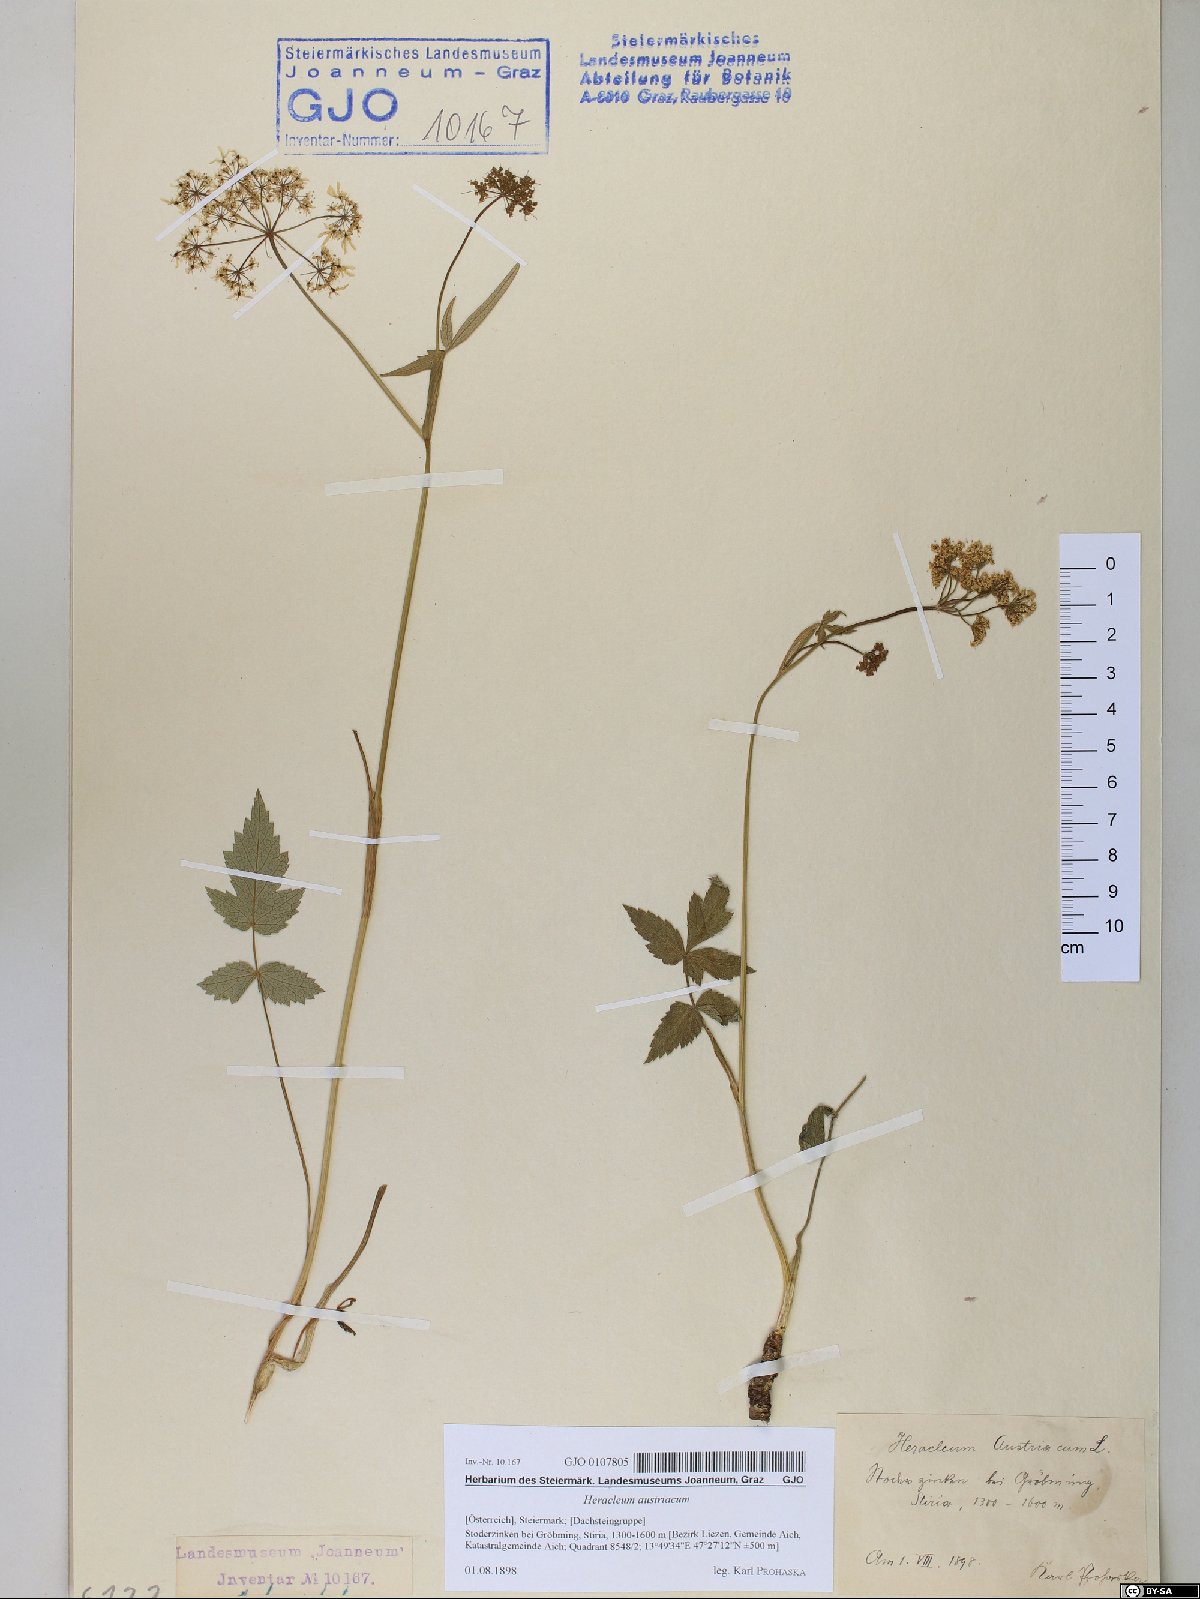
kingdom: Plantae
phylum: Tracheophyta
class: Magnoliopsida
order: Apiales
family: Apiaceae
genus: Heracleum
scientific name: Heracleum austriacum
